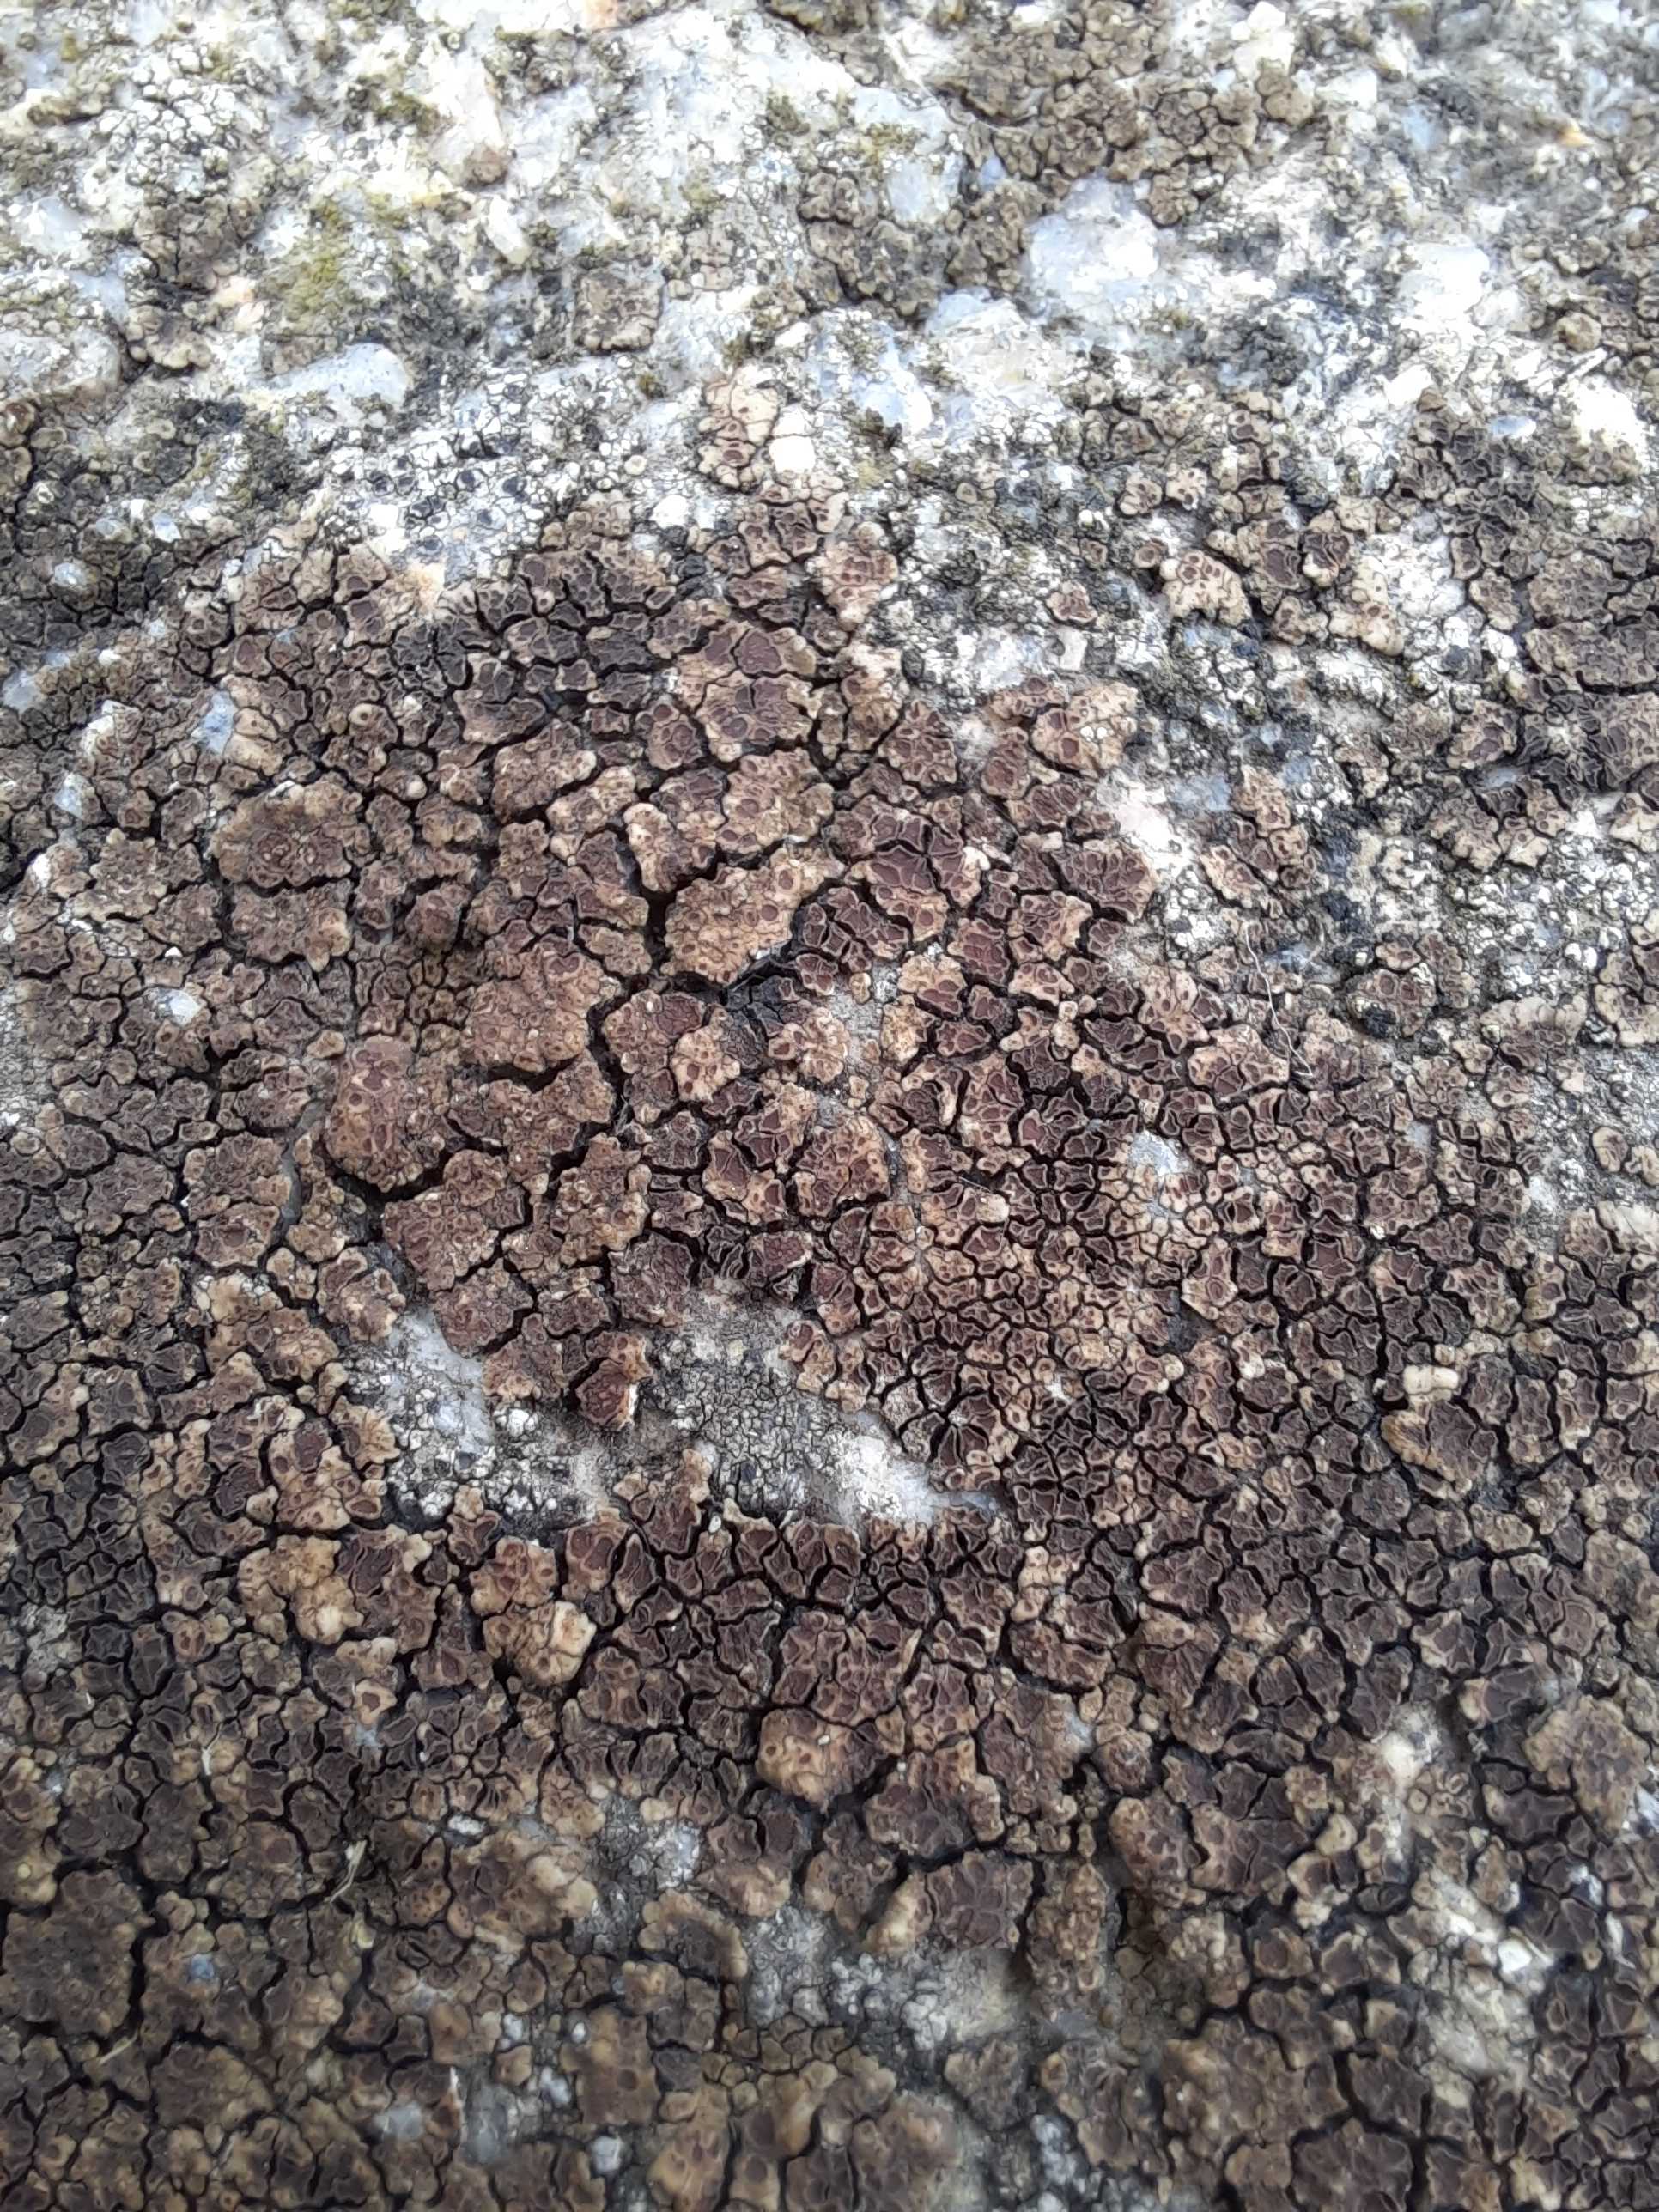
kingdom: Fungi
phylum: Ascomycota
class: Lecanoromycetes
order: Acarosporales
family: Acarosporaceae
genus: Acarospora
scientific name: Acarospora fuscata
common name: brun småsporelav
